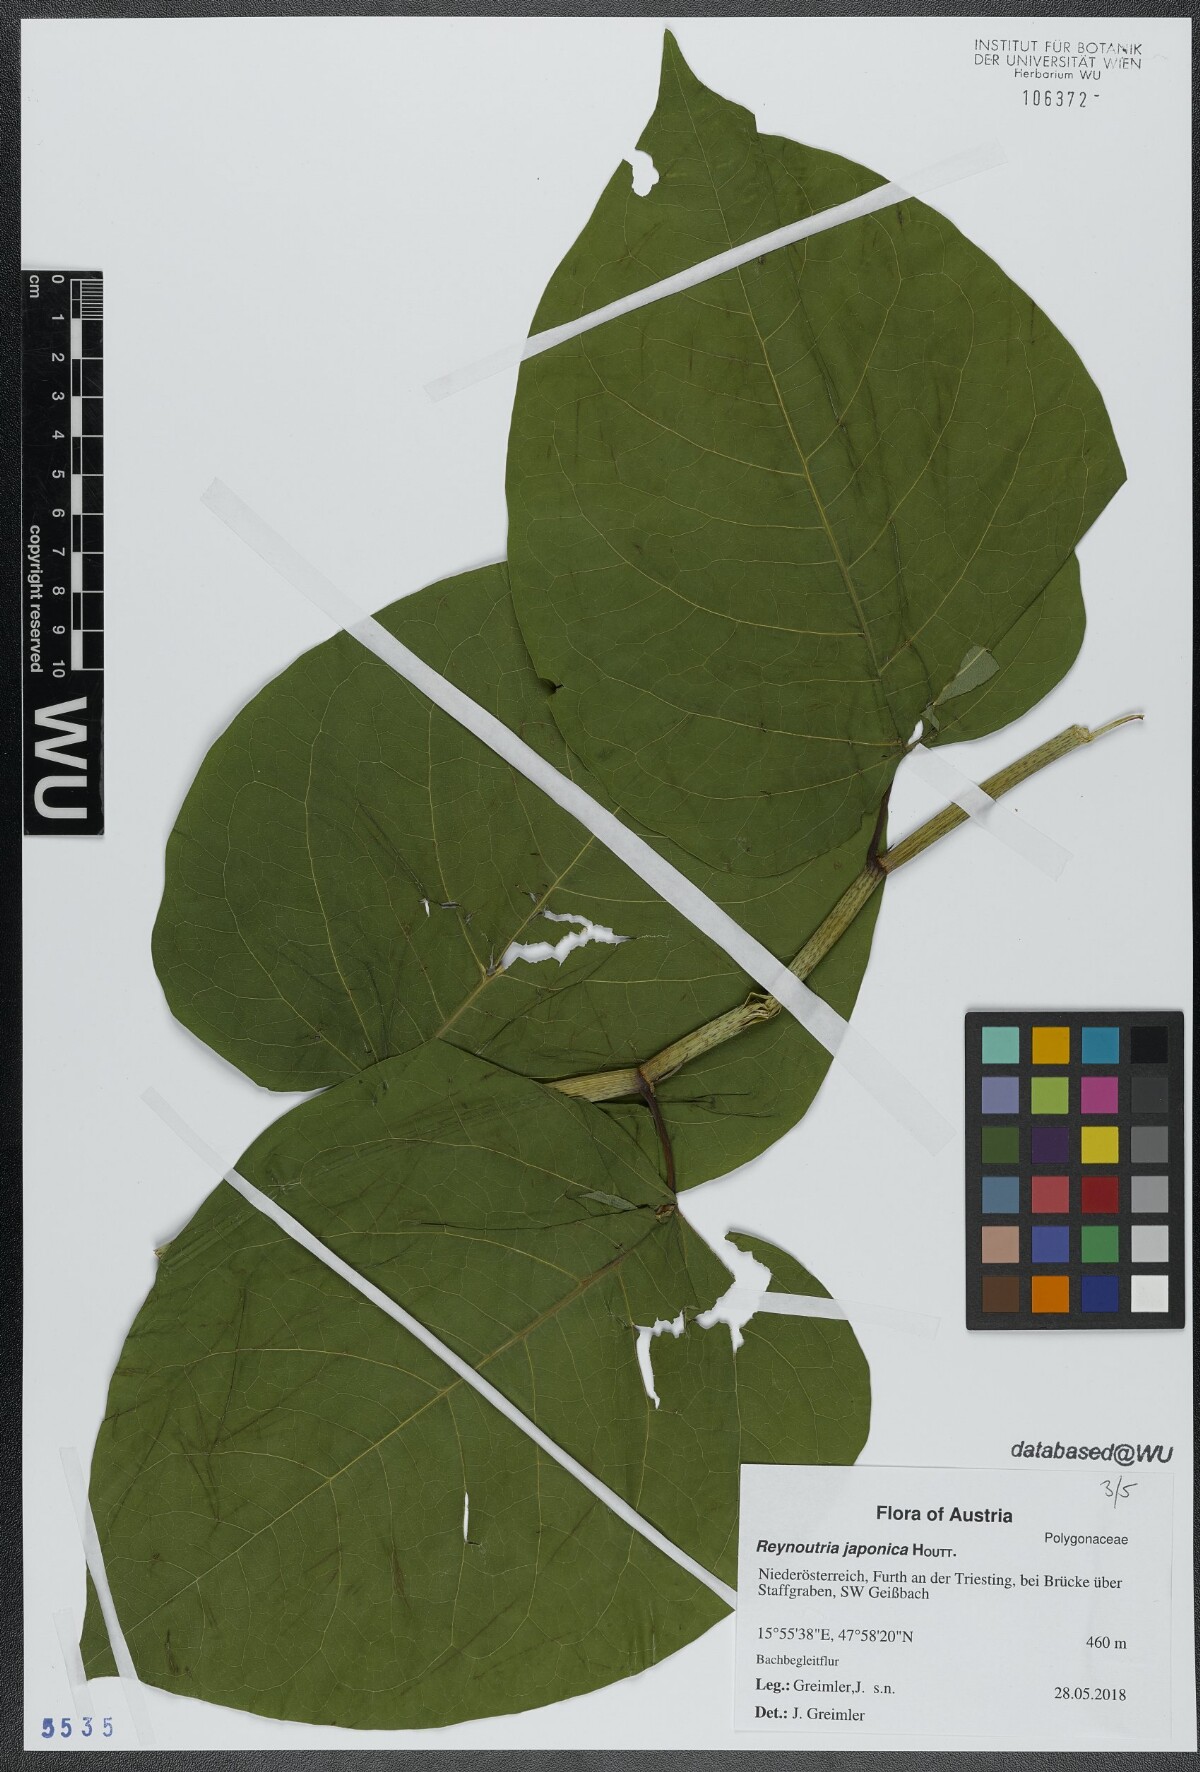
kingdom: Plantae
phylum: Tracheophyta
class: Magnoliopsida
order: Caryophyllales
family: Polygonaceae
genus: Reynoutria
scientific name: Reynoutria bohemica
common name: Bohemian knotweed
